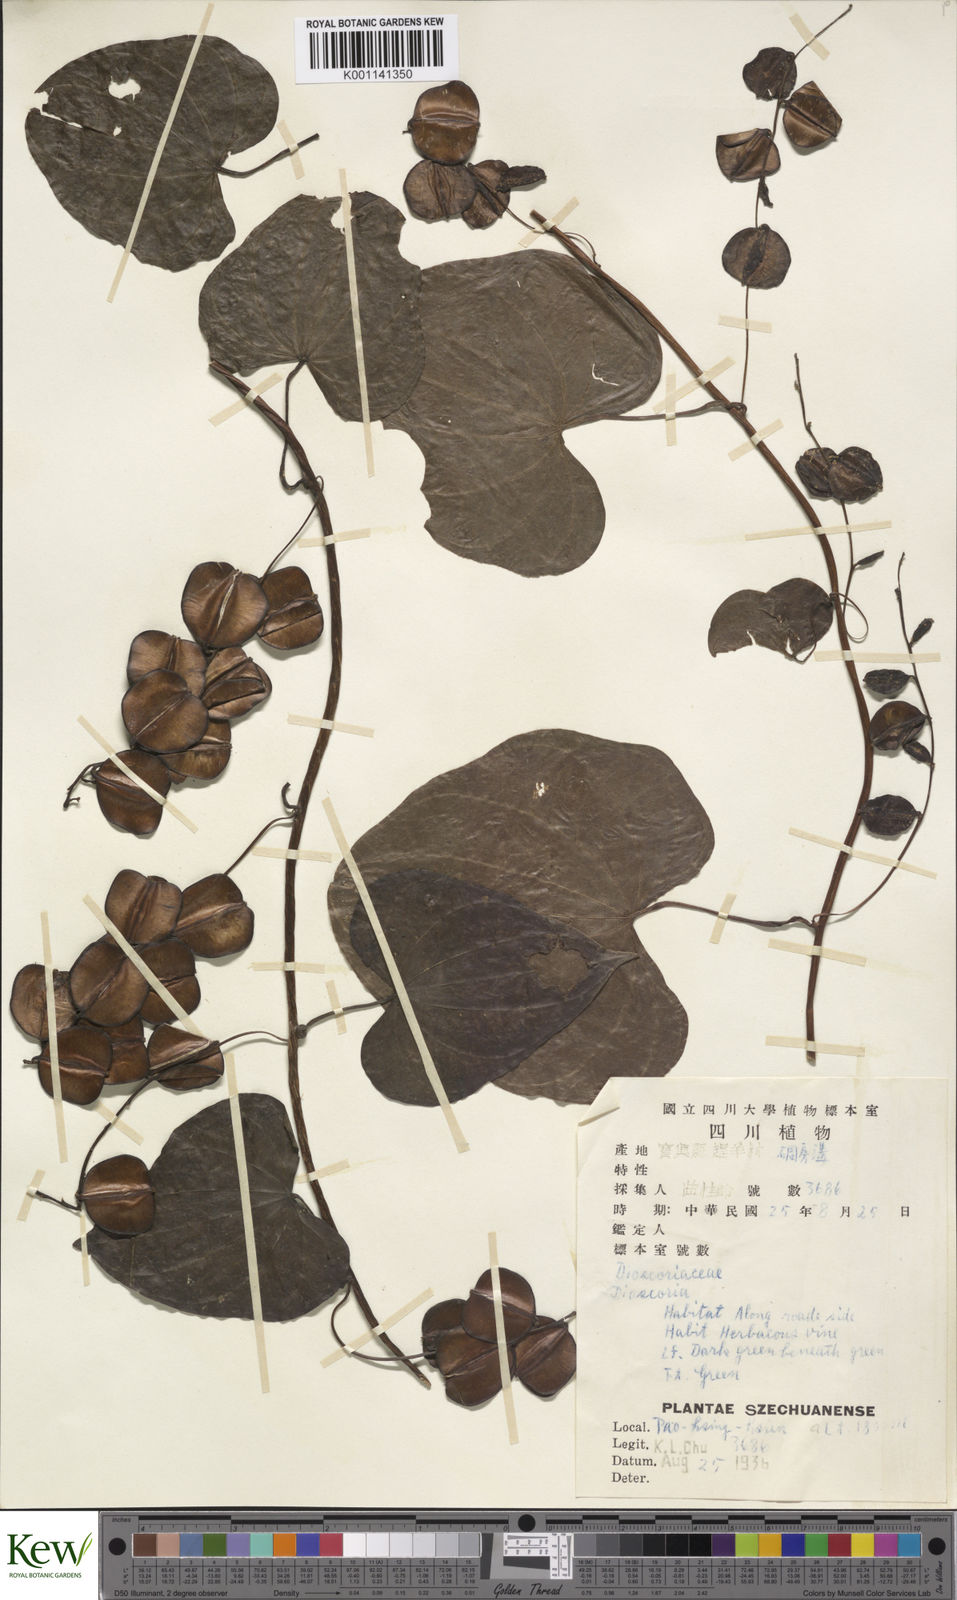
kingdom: Plantae
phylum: Tracheophyta
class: Liliopsida
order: Dioscoreales
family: Dioscoreaceae
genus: Dioscorea
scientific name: Dioscorea collettii
